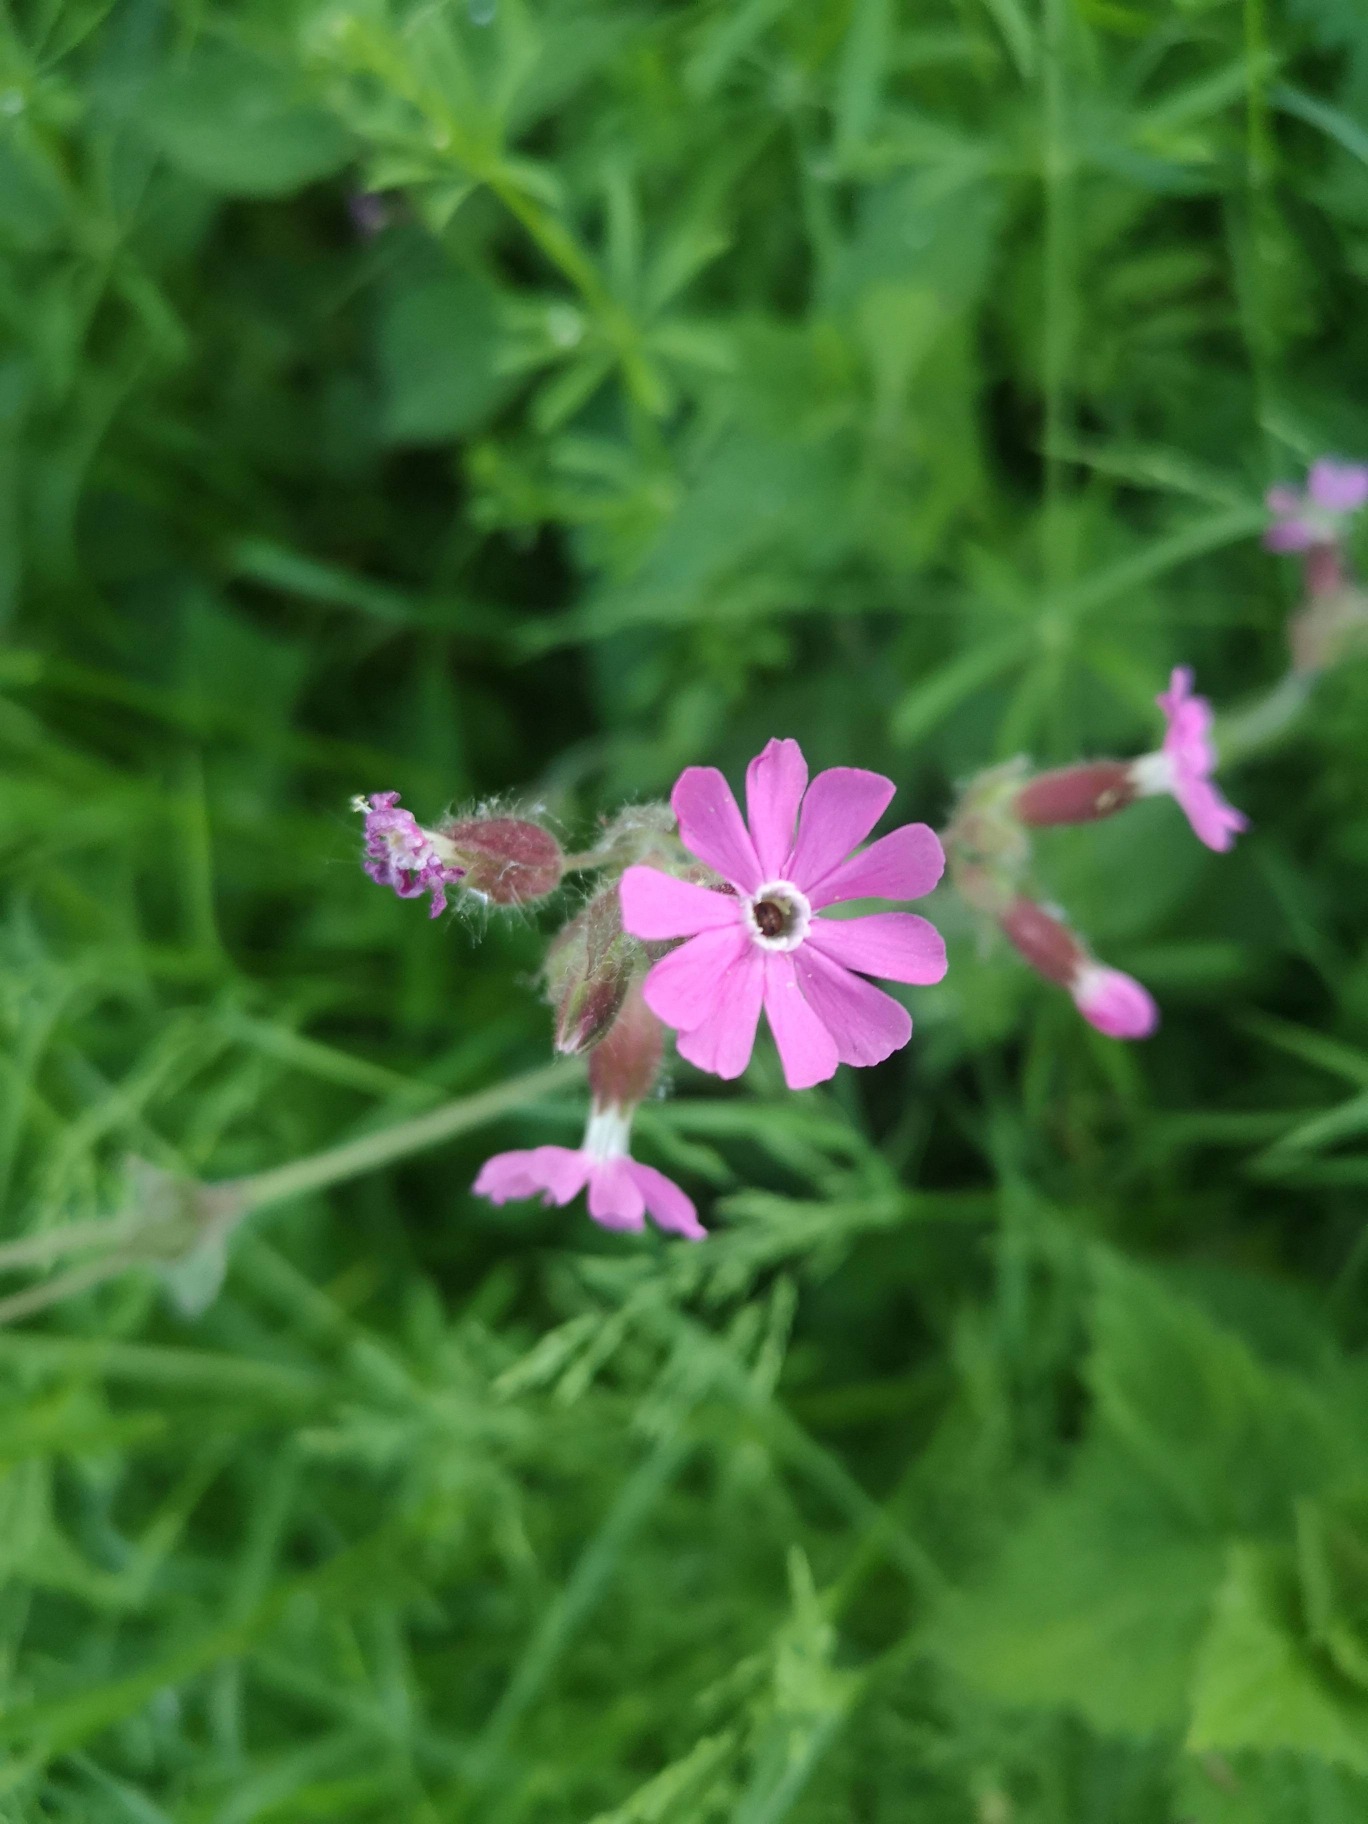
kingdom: Plantae
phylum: Tracheophyta
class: Magnoliopsida
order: Caryophyllales
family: Caryophyllaceae
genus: Silene
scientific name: Silene dioica
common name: Dagpragtstjerne
